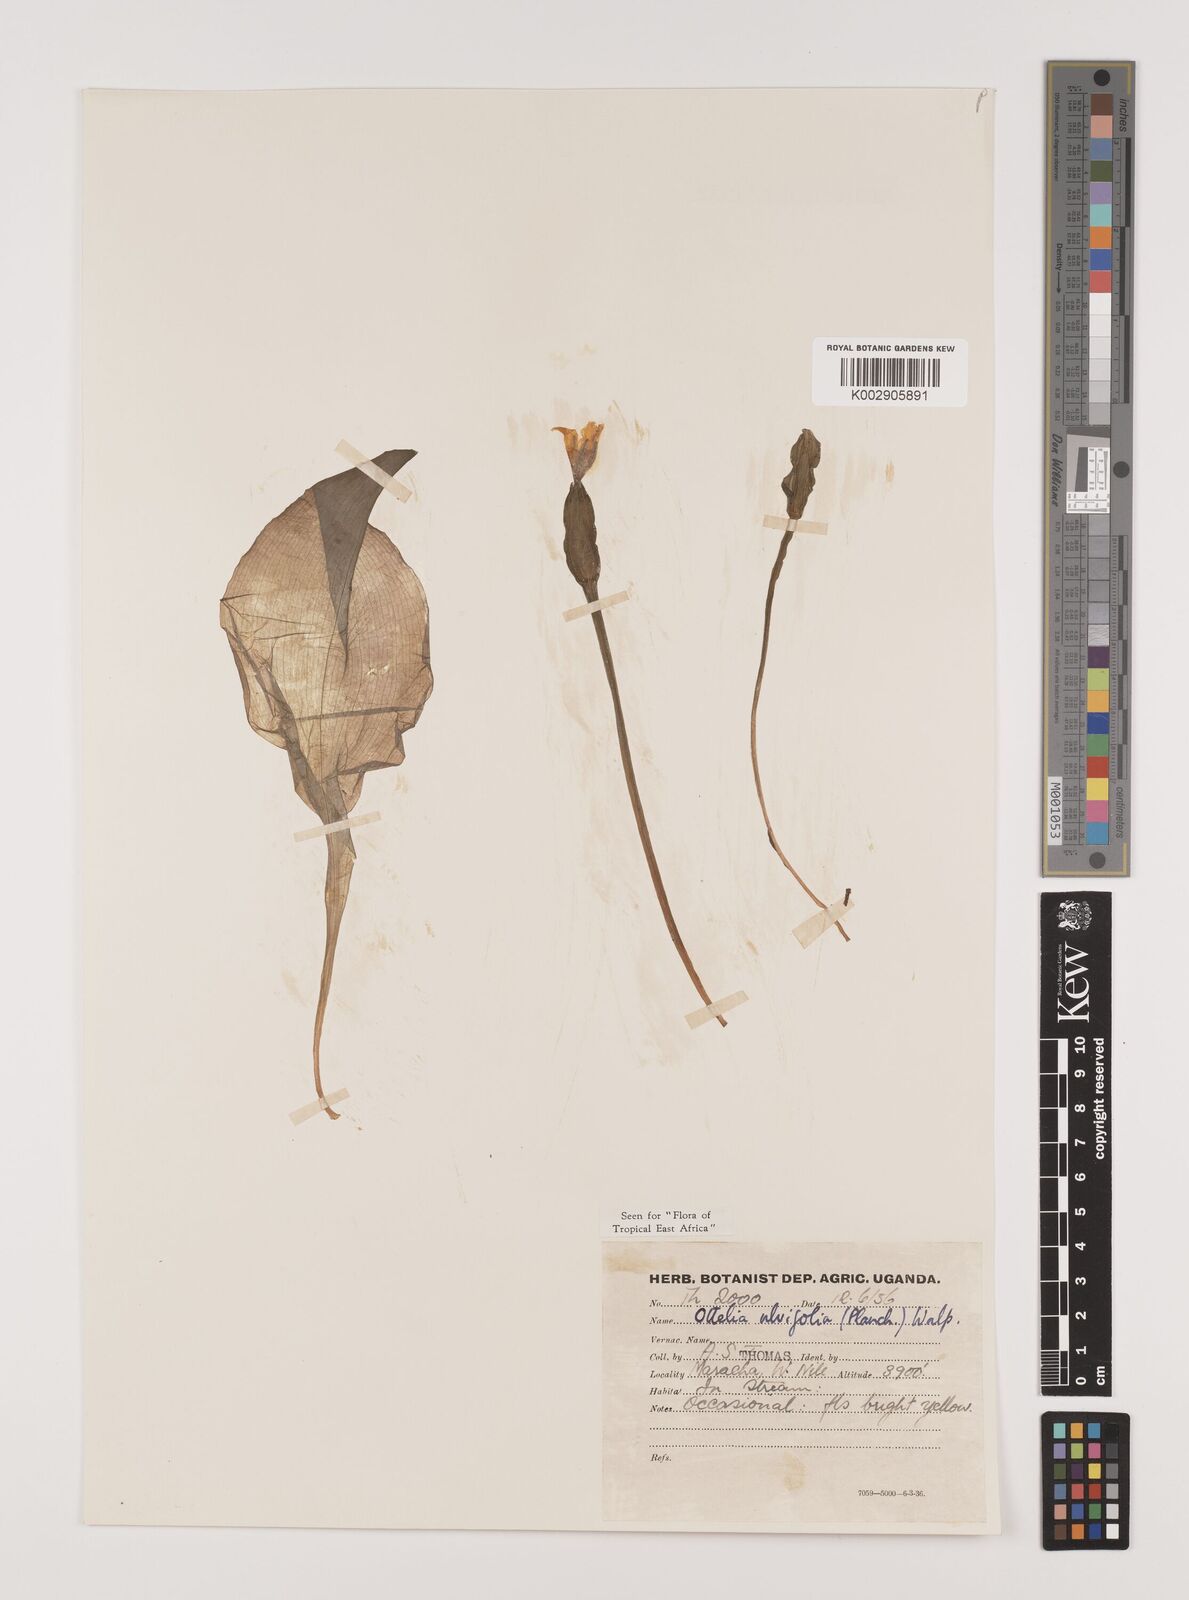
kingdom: Plantae
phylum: Tracheophyta
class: Liliopsida
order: Alismatales
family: Hydrocharitaceae
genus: Ottelia
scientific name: Ottelia ulvifolia
